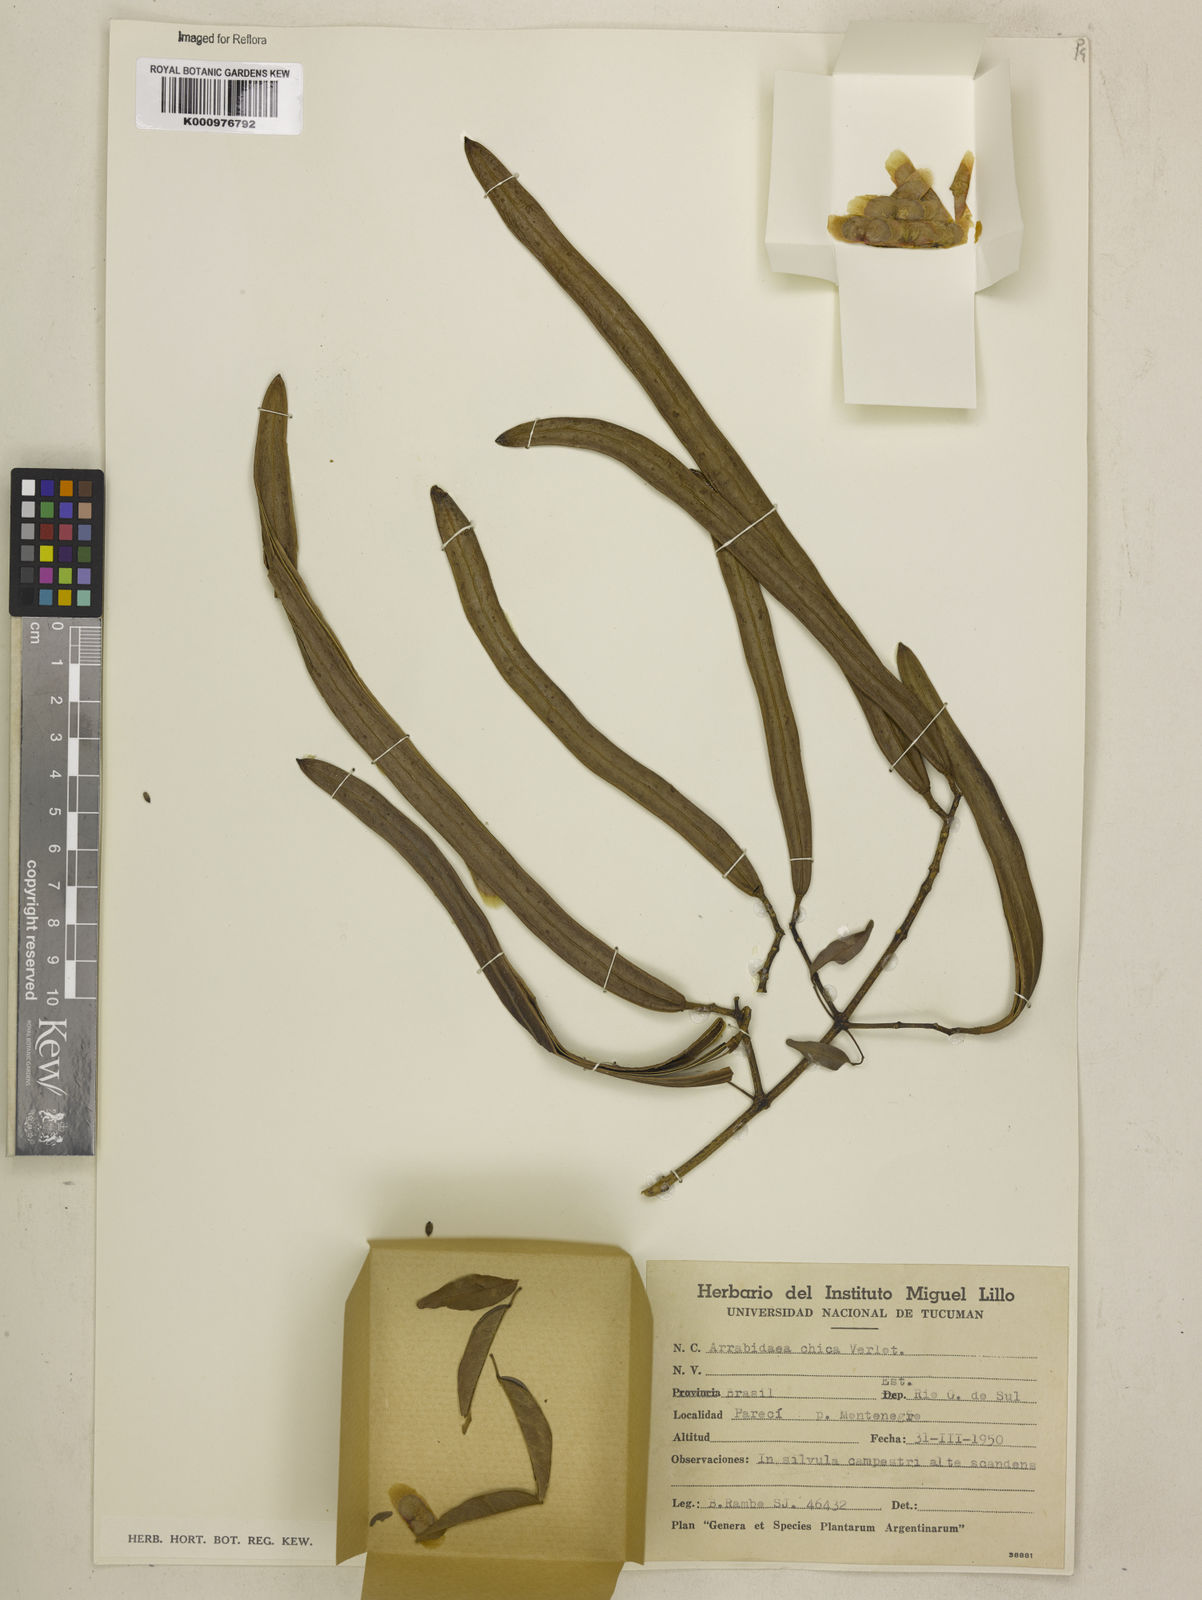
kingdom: Plantae
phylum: Tracheophyta
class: Magnoliopsida
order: Lamiales
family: Bignoniaceae
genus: Fridericia
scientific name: Fridericia chica
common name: Cricketvine
